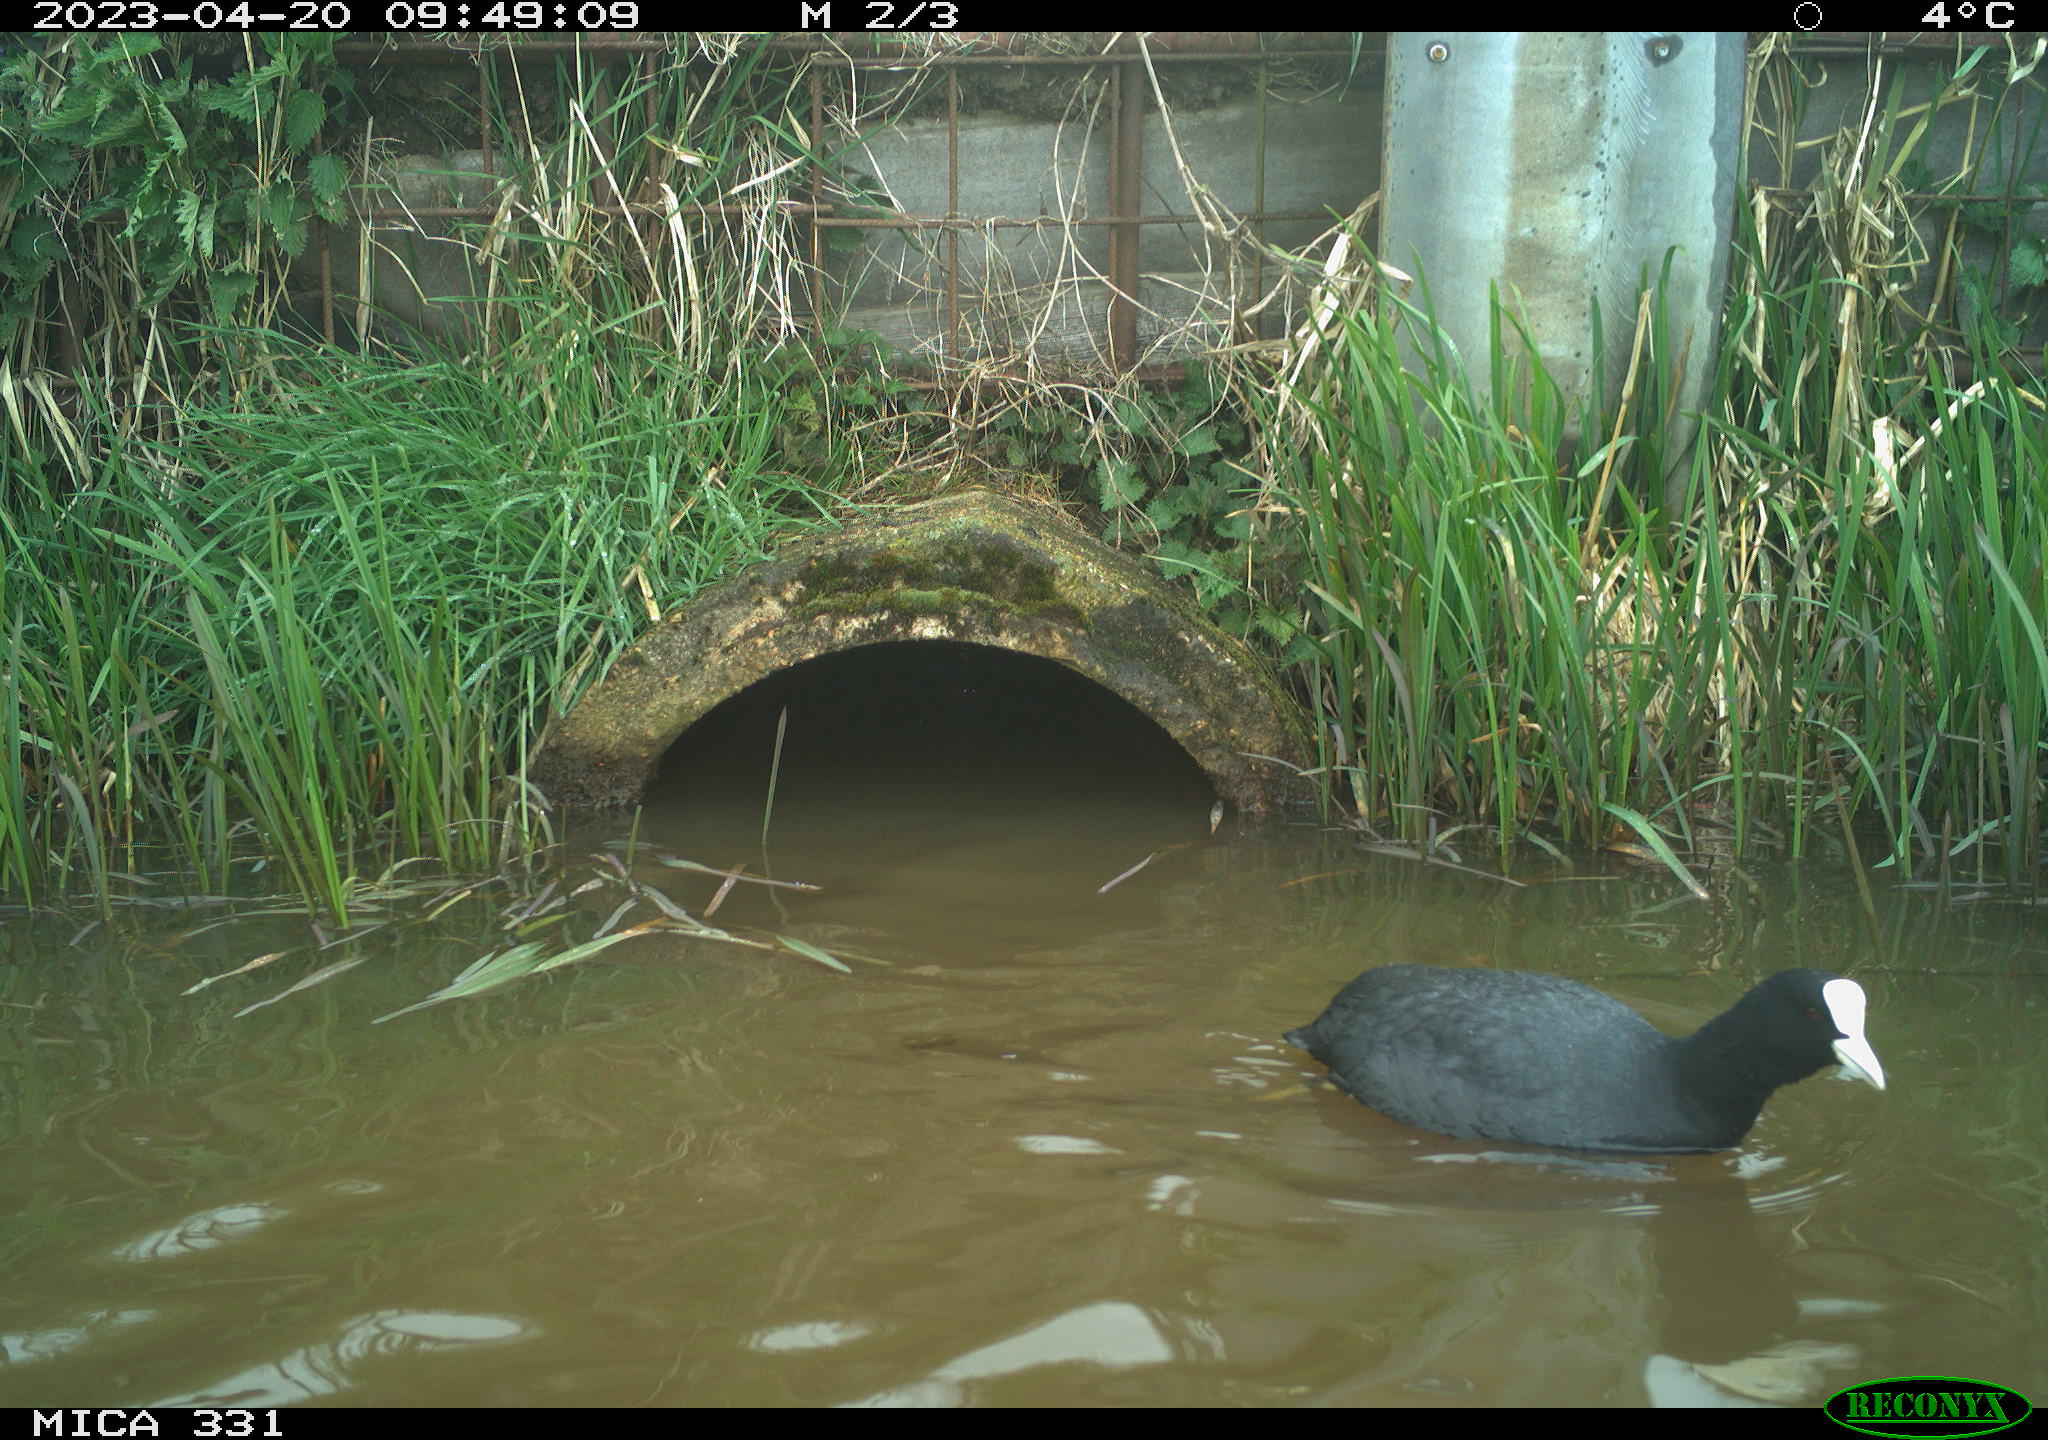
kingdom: Animalia
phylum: Chordata
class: Aves
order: Gruiformes
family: Rallidae
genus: Fulica
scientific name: Fulica atra
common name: Eurasian coot
